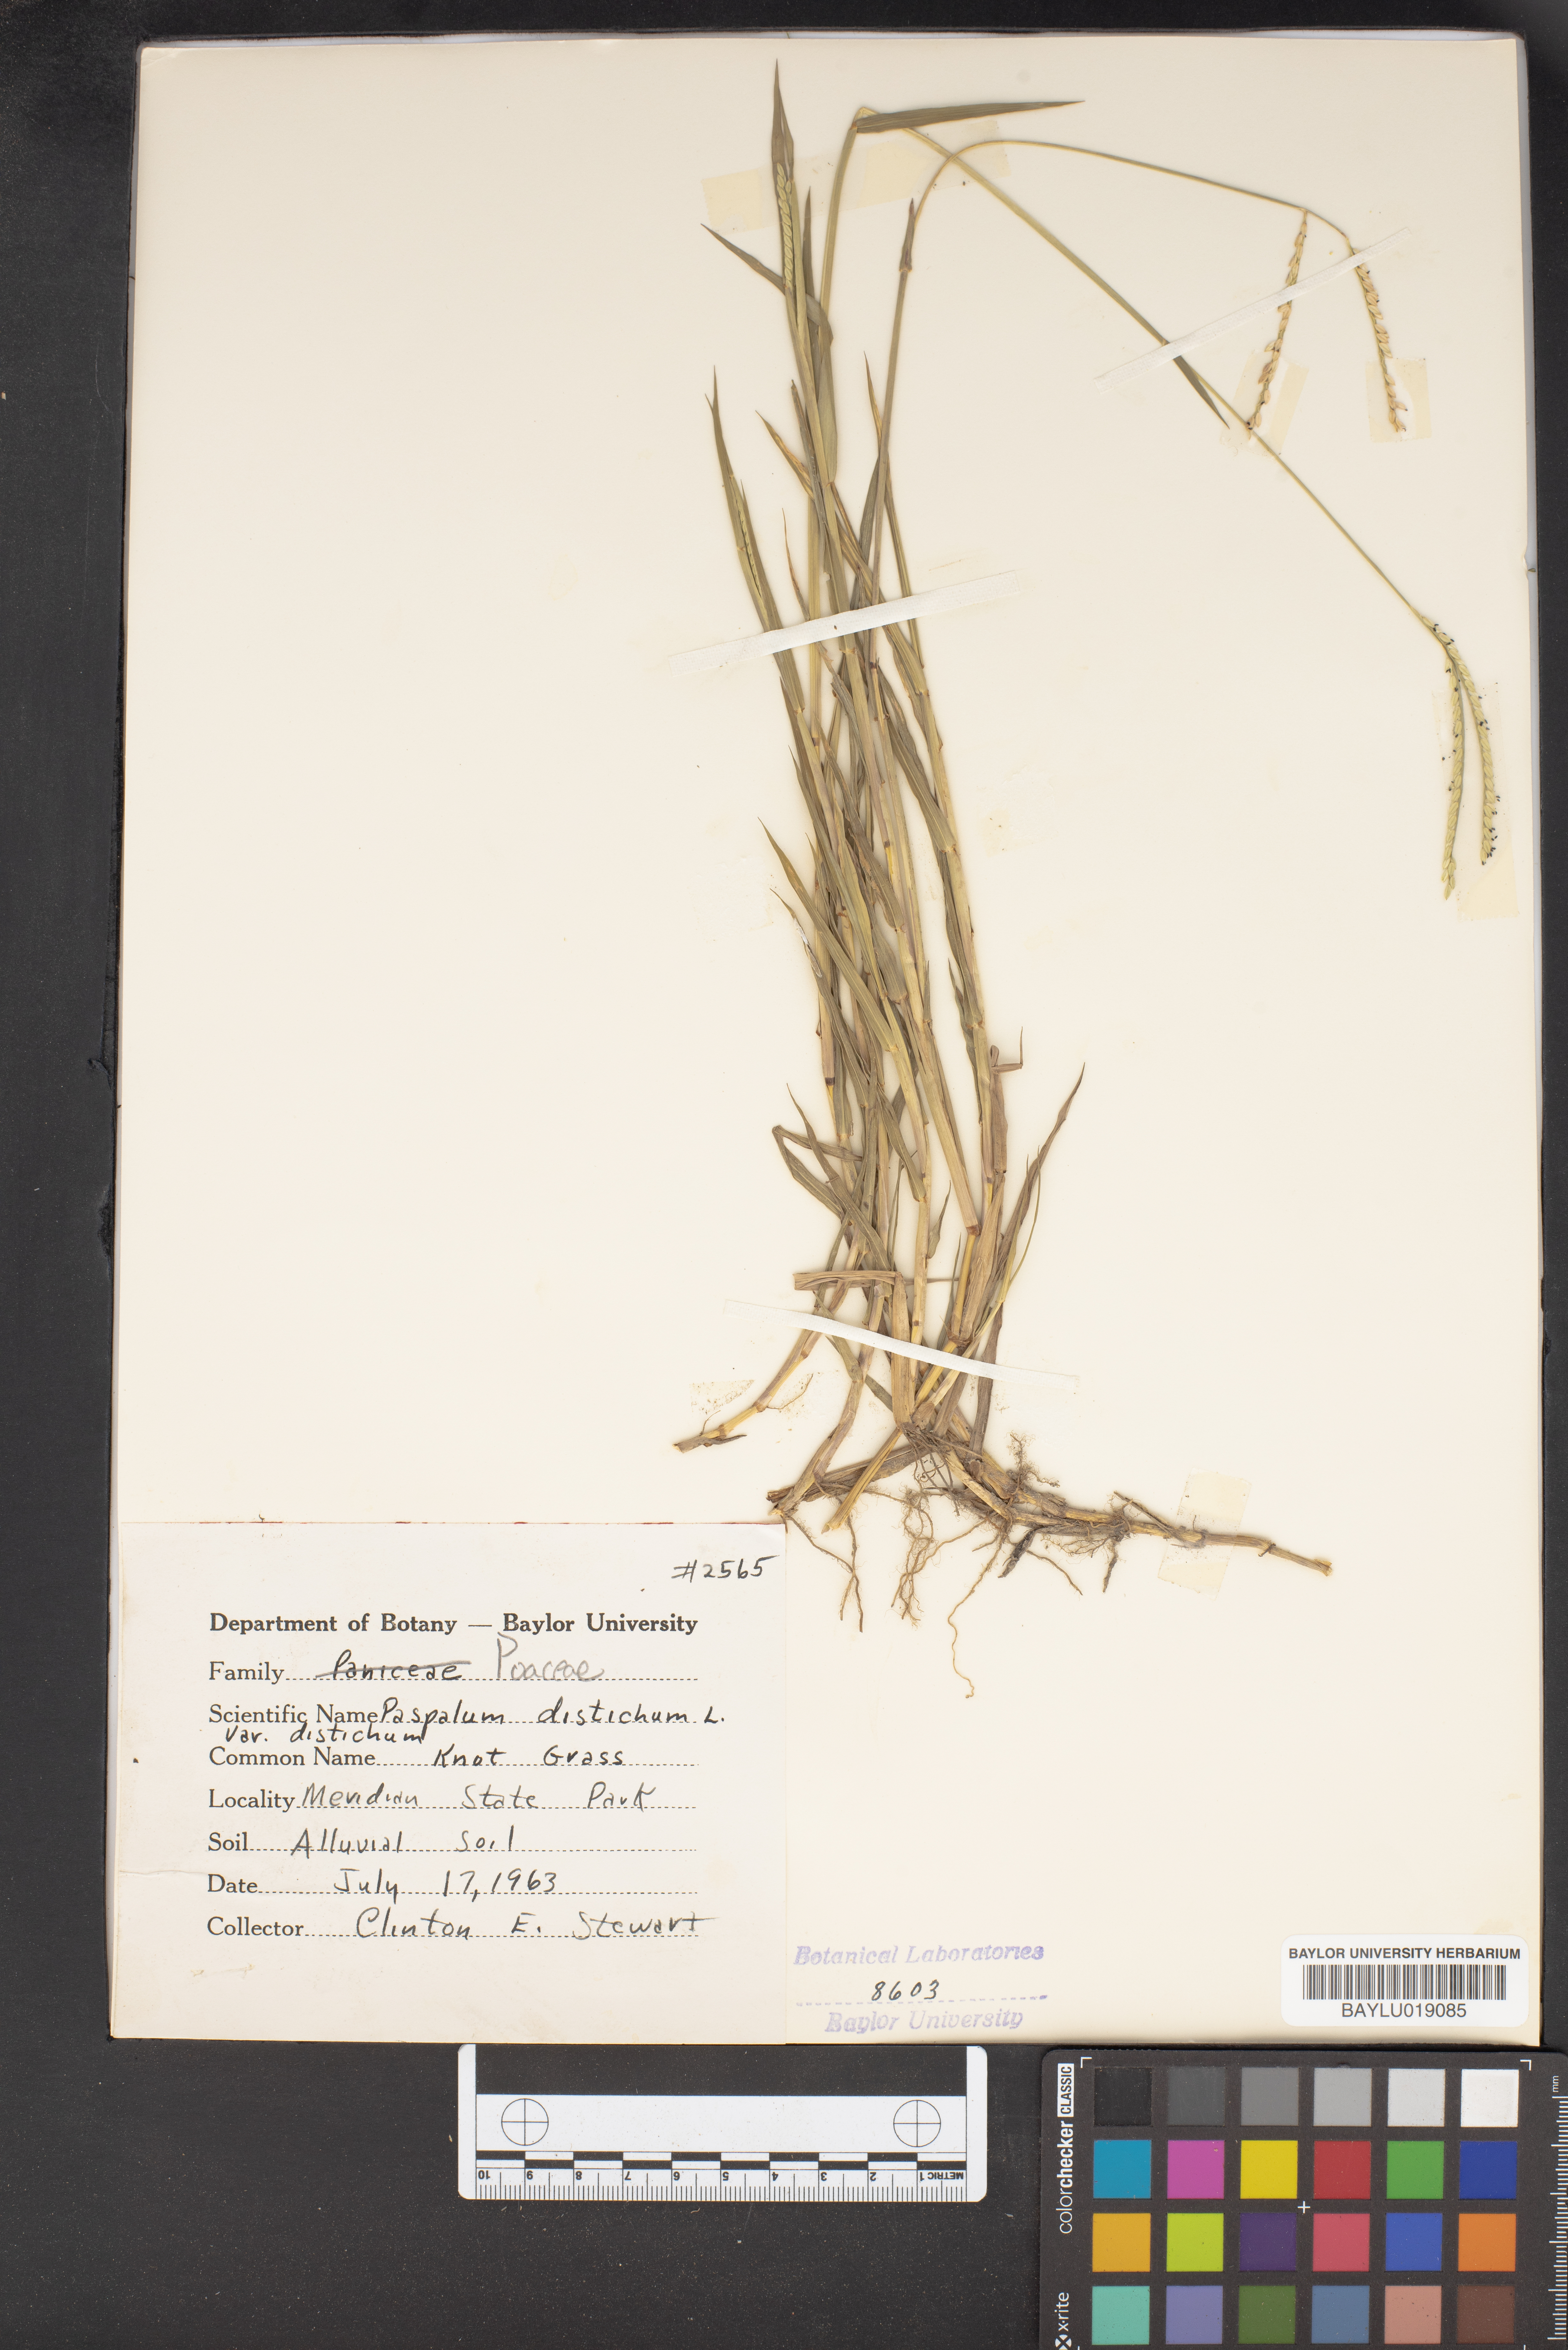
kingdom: Plantae
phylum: Tracheophyta
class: Liliopsida
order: Poales
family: Poaceae
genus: Paspalum
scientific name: Paspalum distichum
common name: Knotgrass
